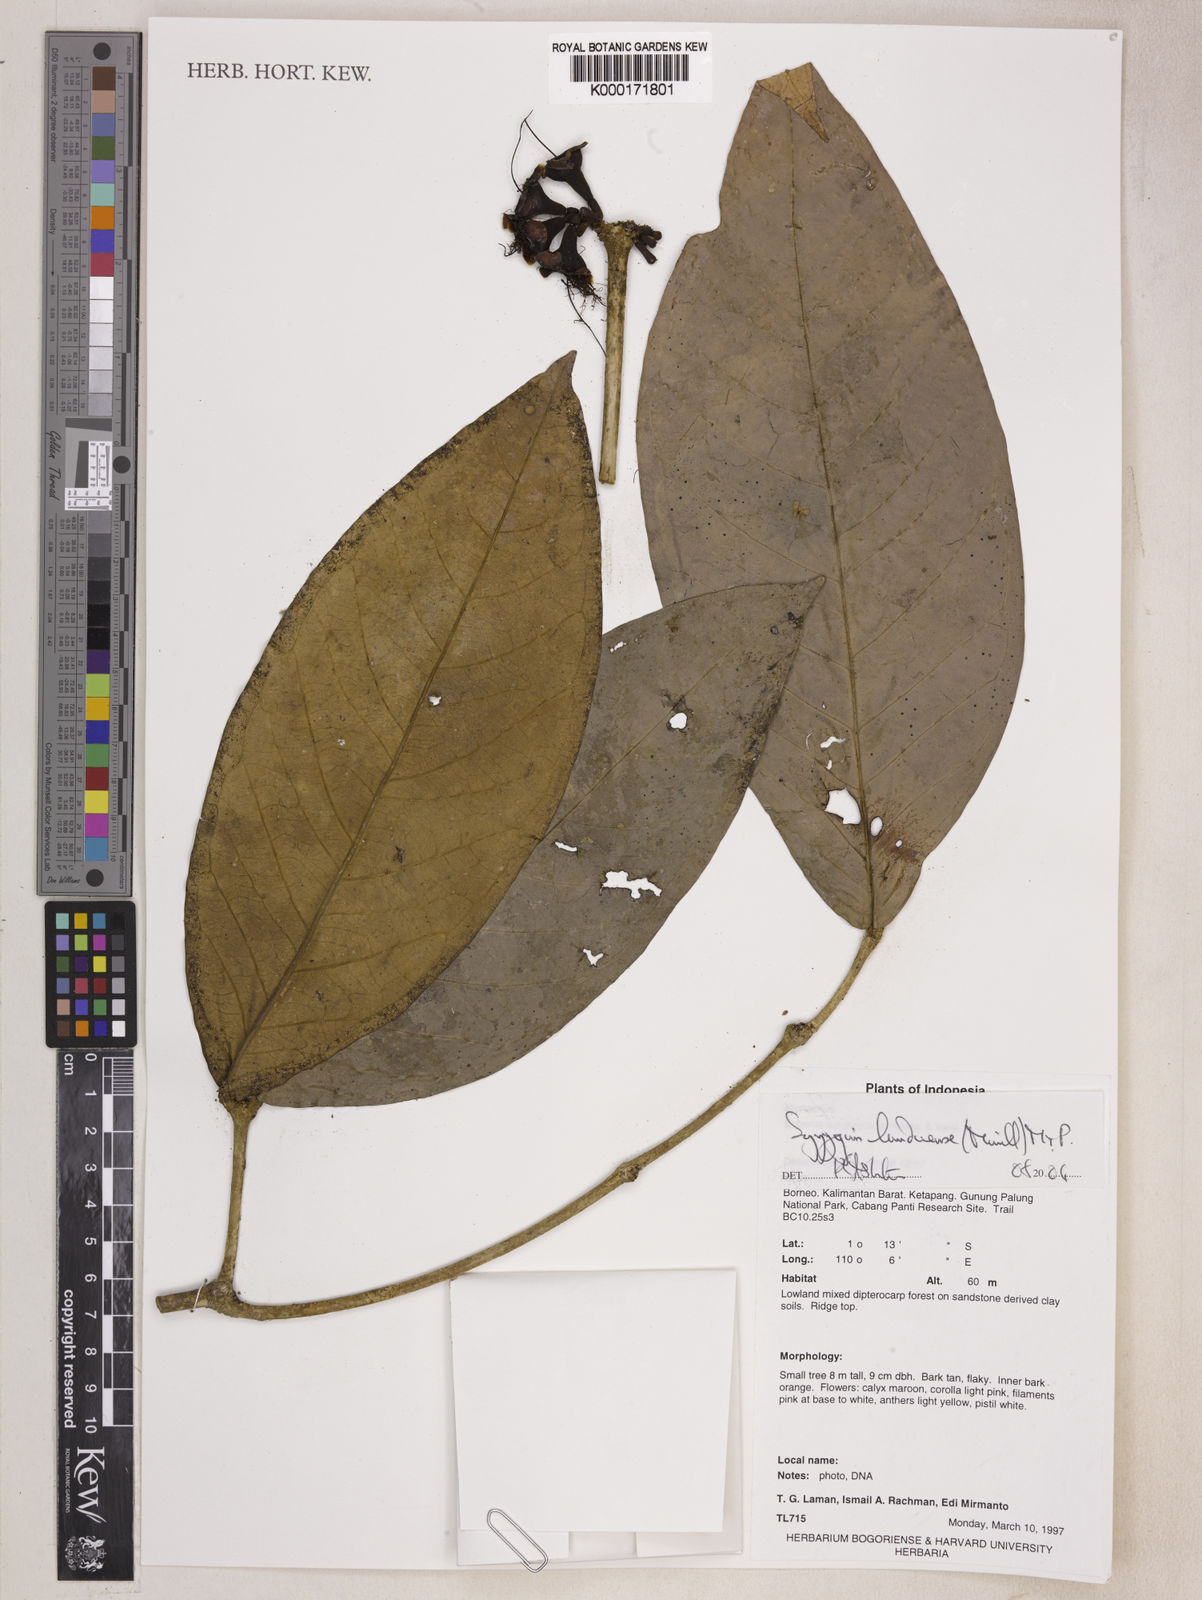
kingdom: Plantae
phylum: Tracheophyta
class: Magnoliopsida
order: Myrtales
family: Myrtaceae
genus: Syzygium
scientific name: Syzygium lunduense
